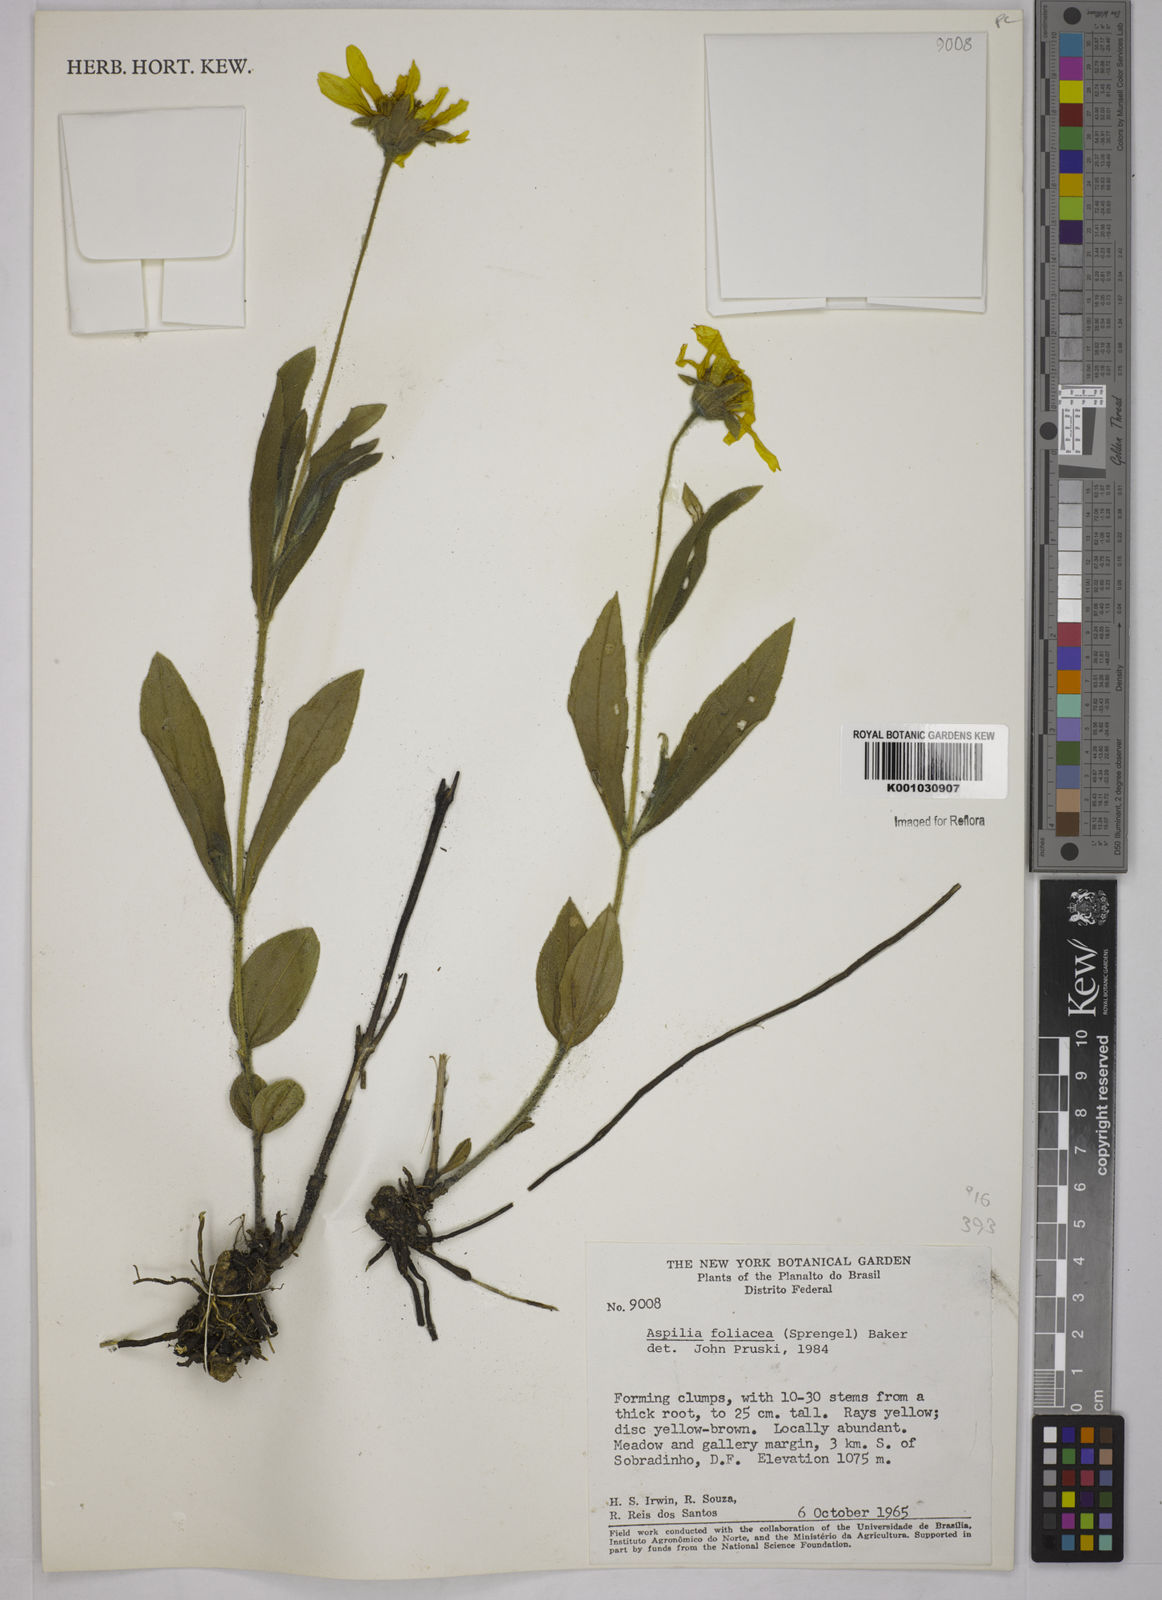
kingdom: Plantae
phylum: Tracheophyta
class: Magnoliopsida
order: Asterales
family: Asteraceae
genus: Wedelia
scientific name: Wedelia foliacea
